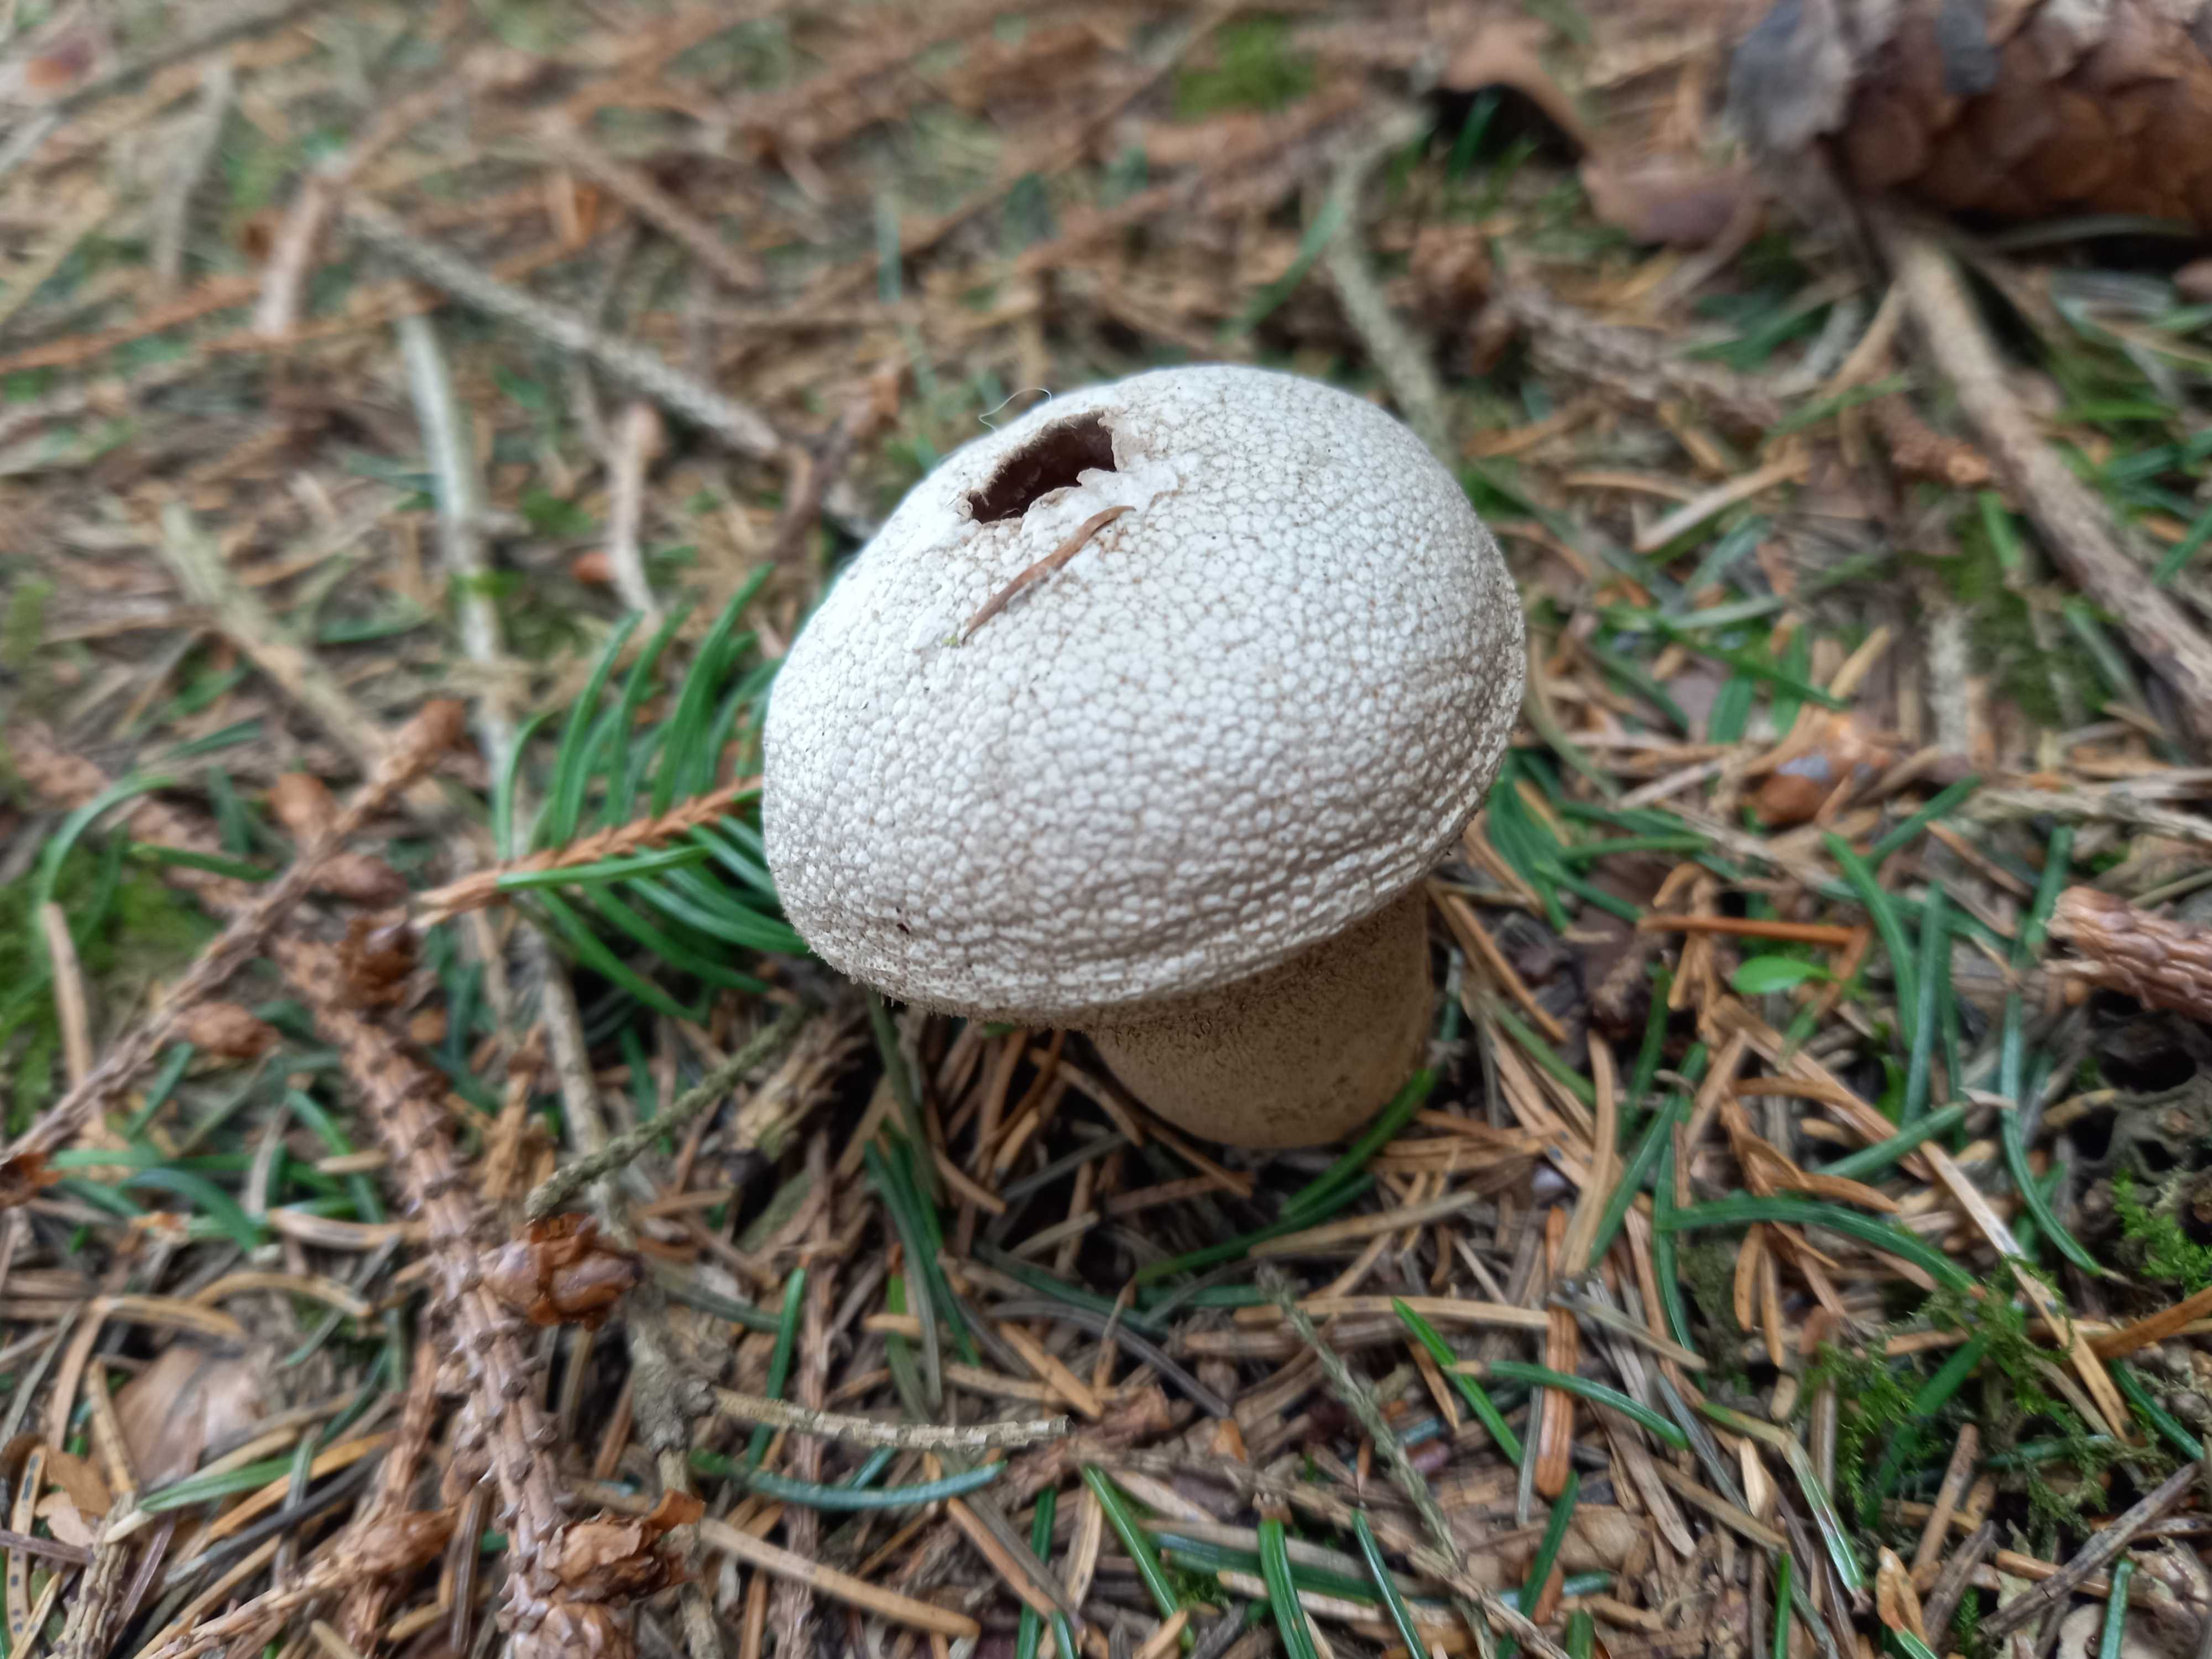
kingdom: Fungi
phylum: Basidiomycota
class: Agaricomycetes
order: Agaricales
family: Lycoperdaceae
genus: Lycoperdon
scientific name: Lycoperdon perlatum
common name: krystal-støvbold
